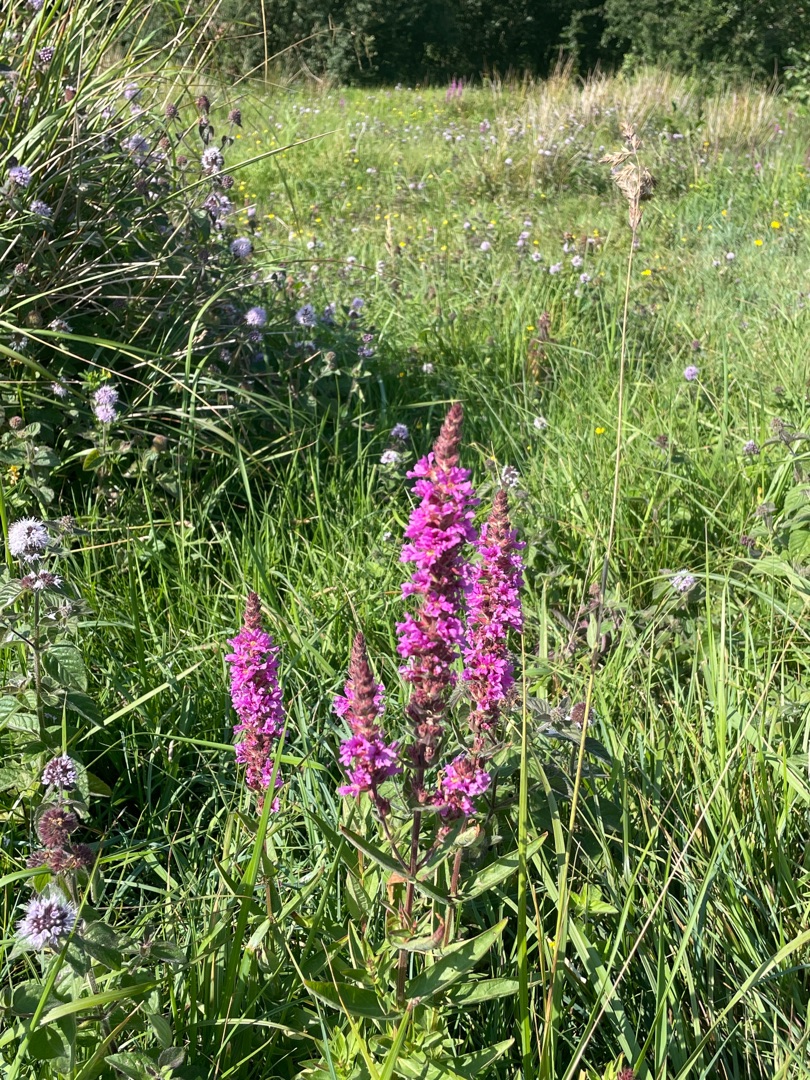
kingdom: Plantae
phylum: Tracheophyta
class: Magnoliopsida
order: Myrtales
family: Lythraceae
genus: Lythrum
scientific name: Lythrum salicaria
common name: Kattehale
